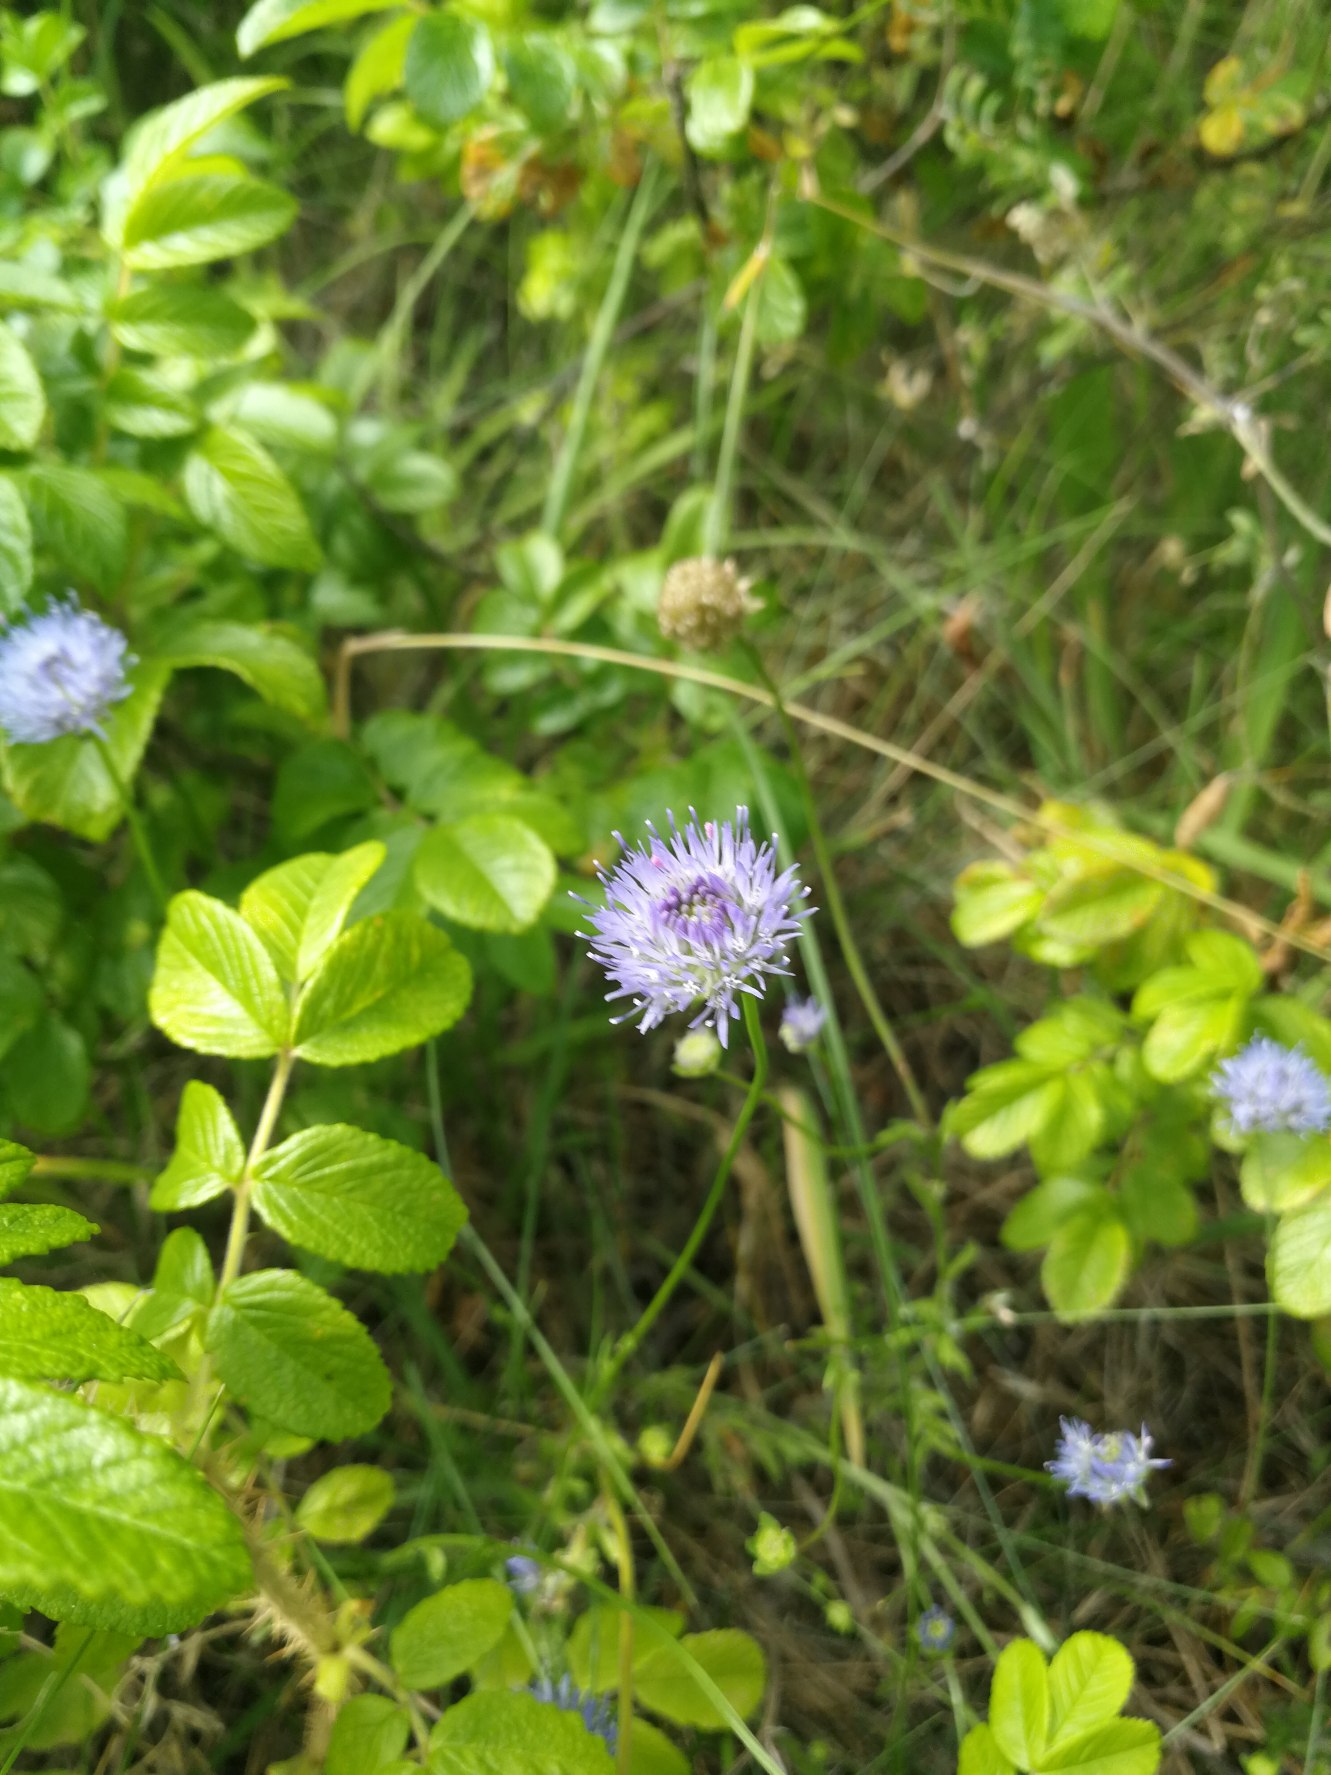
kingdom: Plantae
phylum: Tracheophyta
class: Magnoliopsida
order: Asterales
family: Campanulaceae
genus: Jasione
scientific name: Jasione montana
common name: Blåmunke
